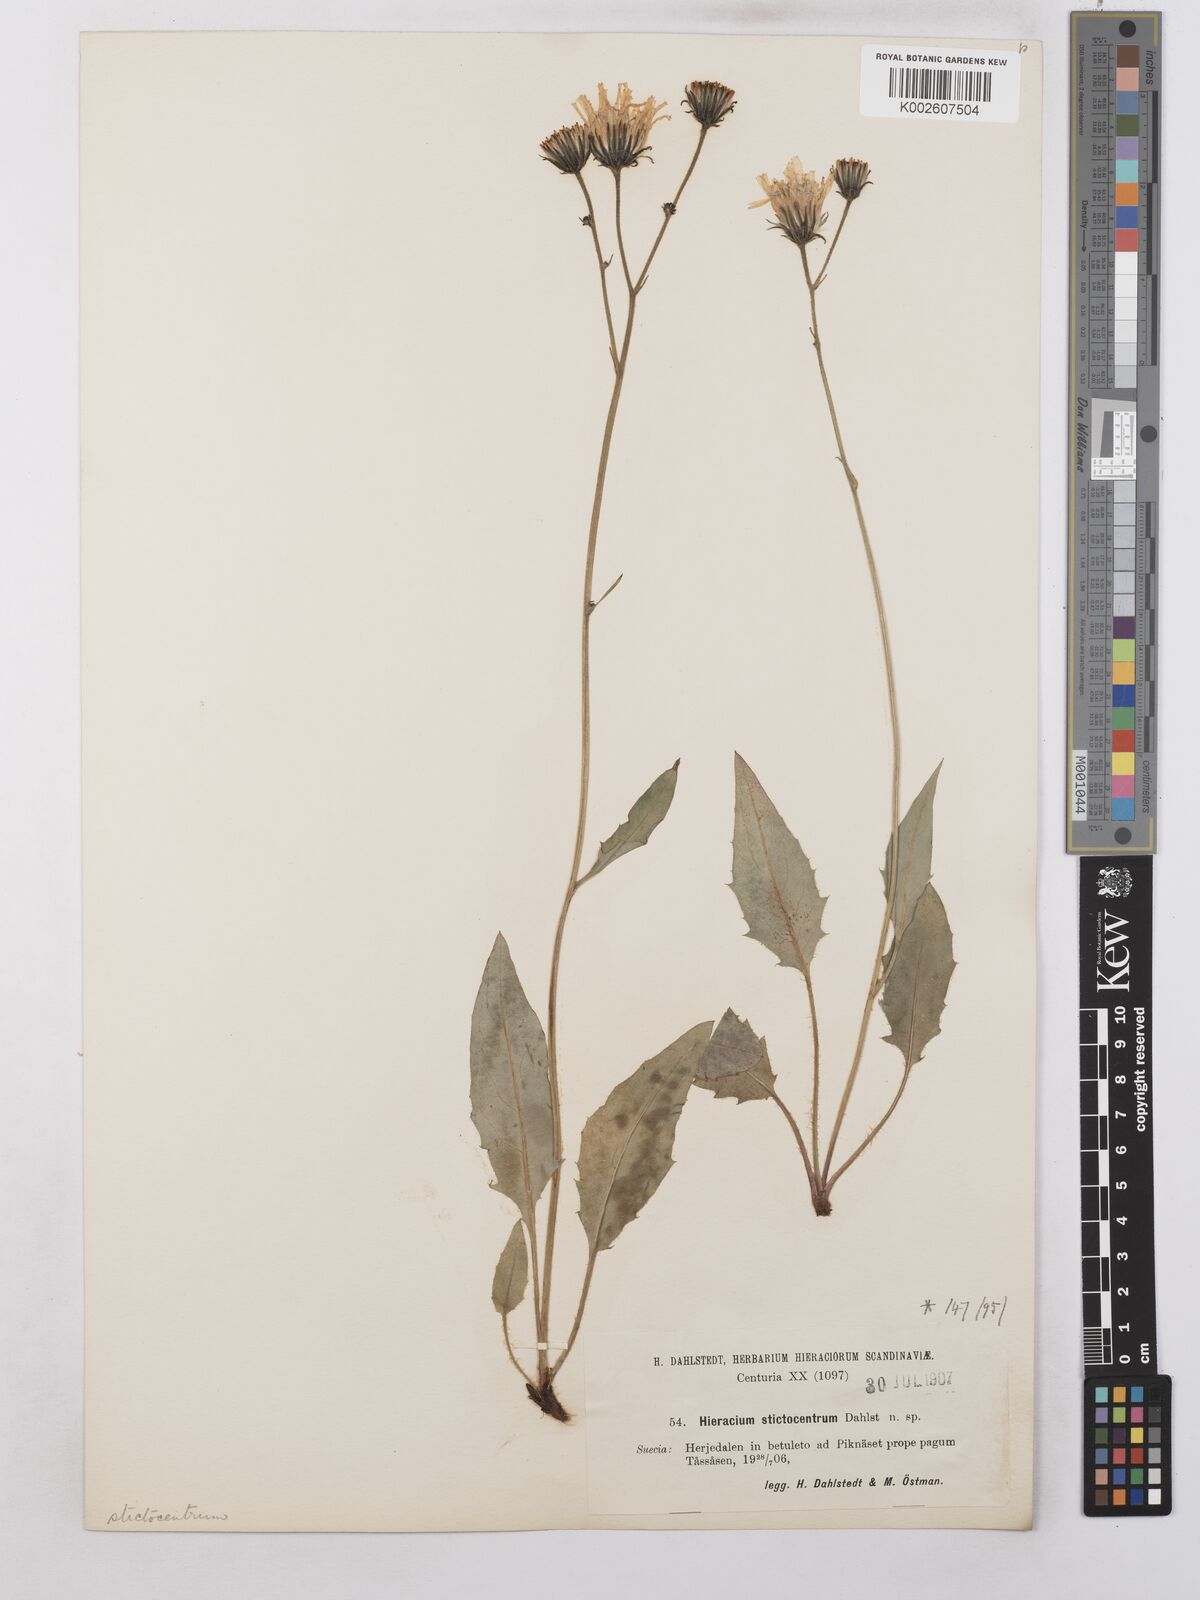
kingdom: Plantae
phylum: Tracheophyta
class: Magnoliopsida
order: Asterales
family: Asteraceae
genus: Hieracium
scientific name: Hieracium caesium
